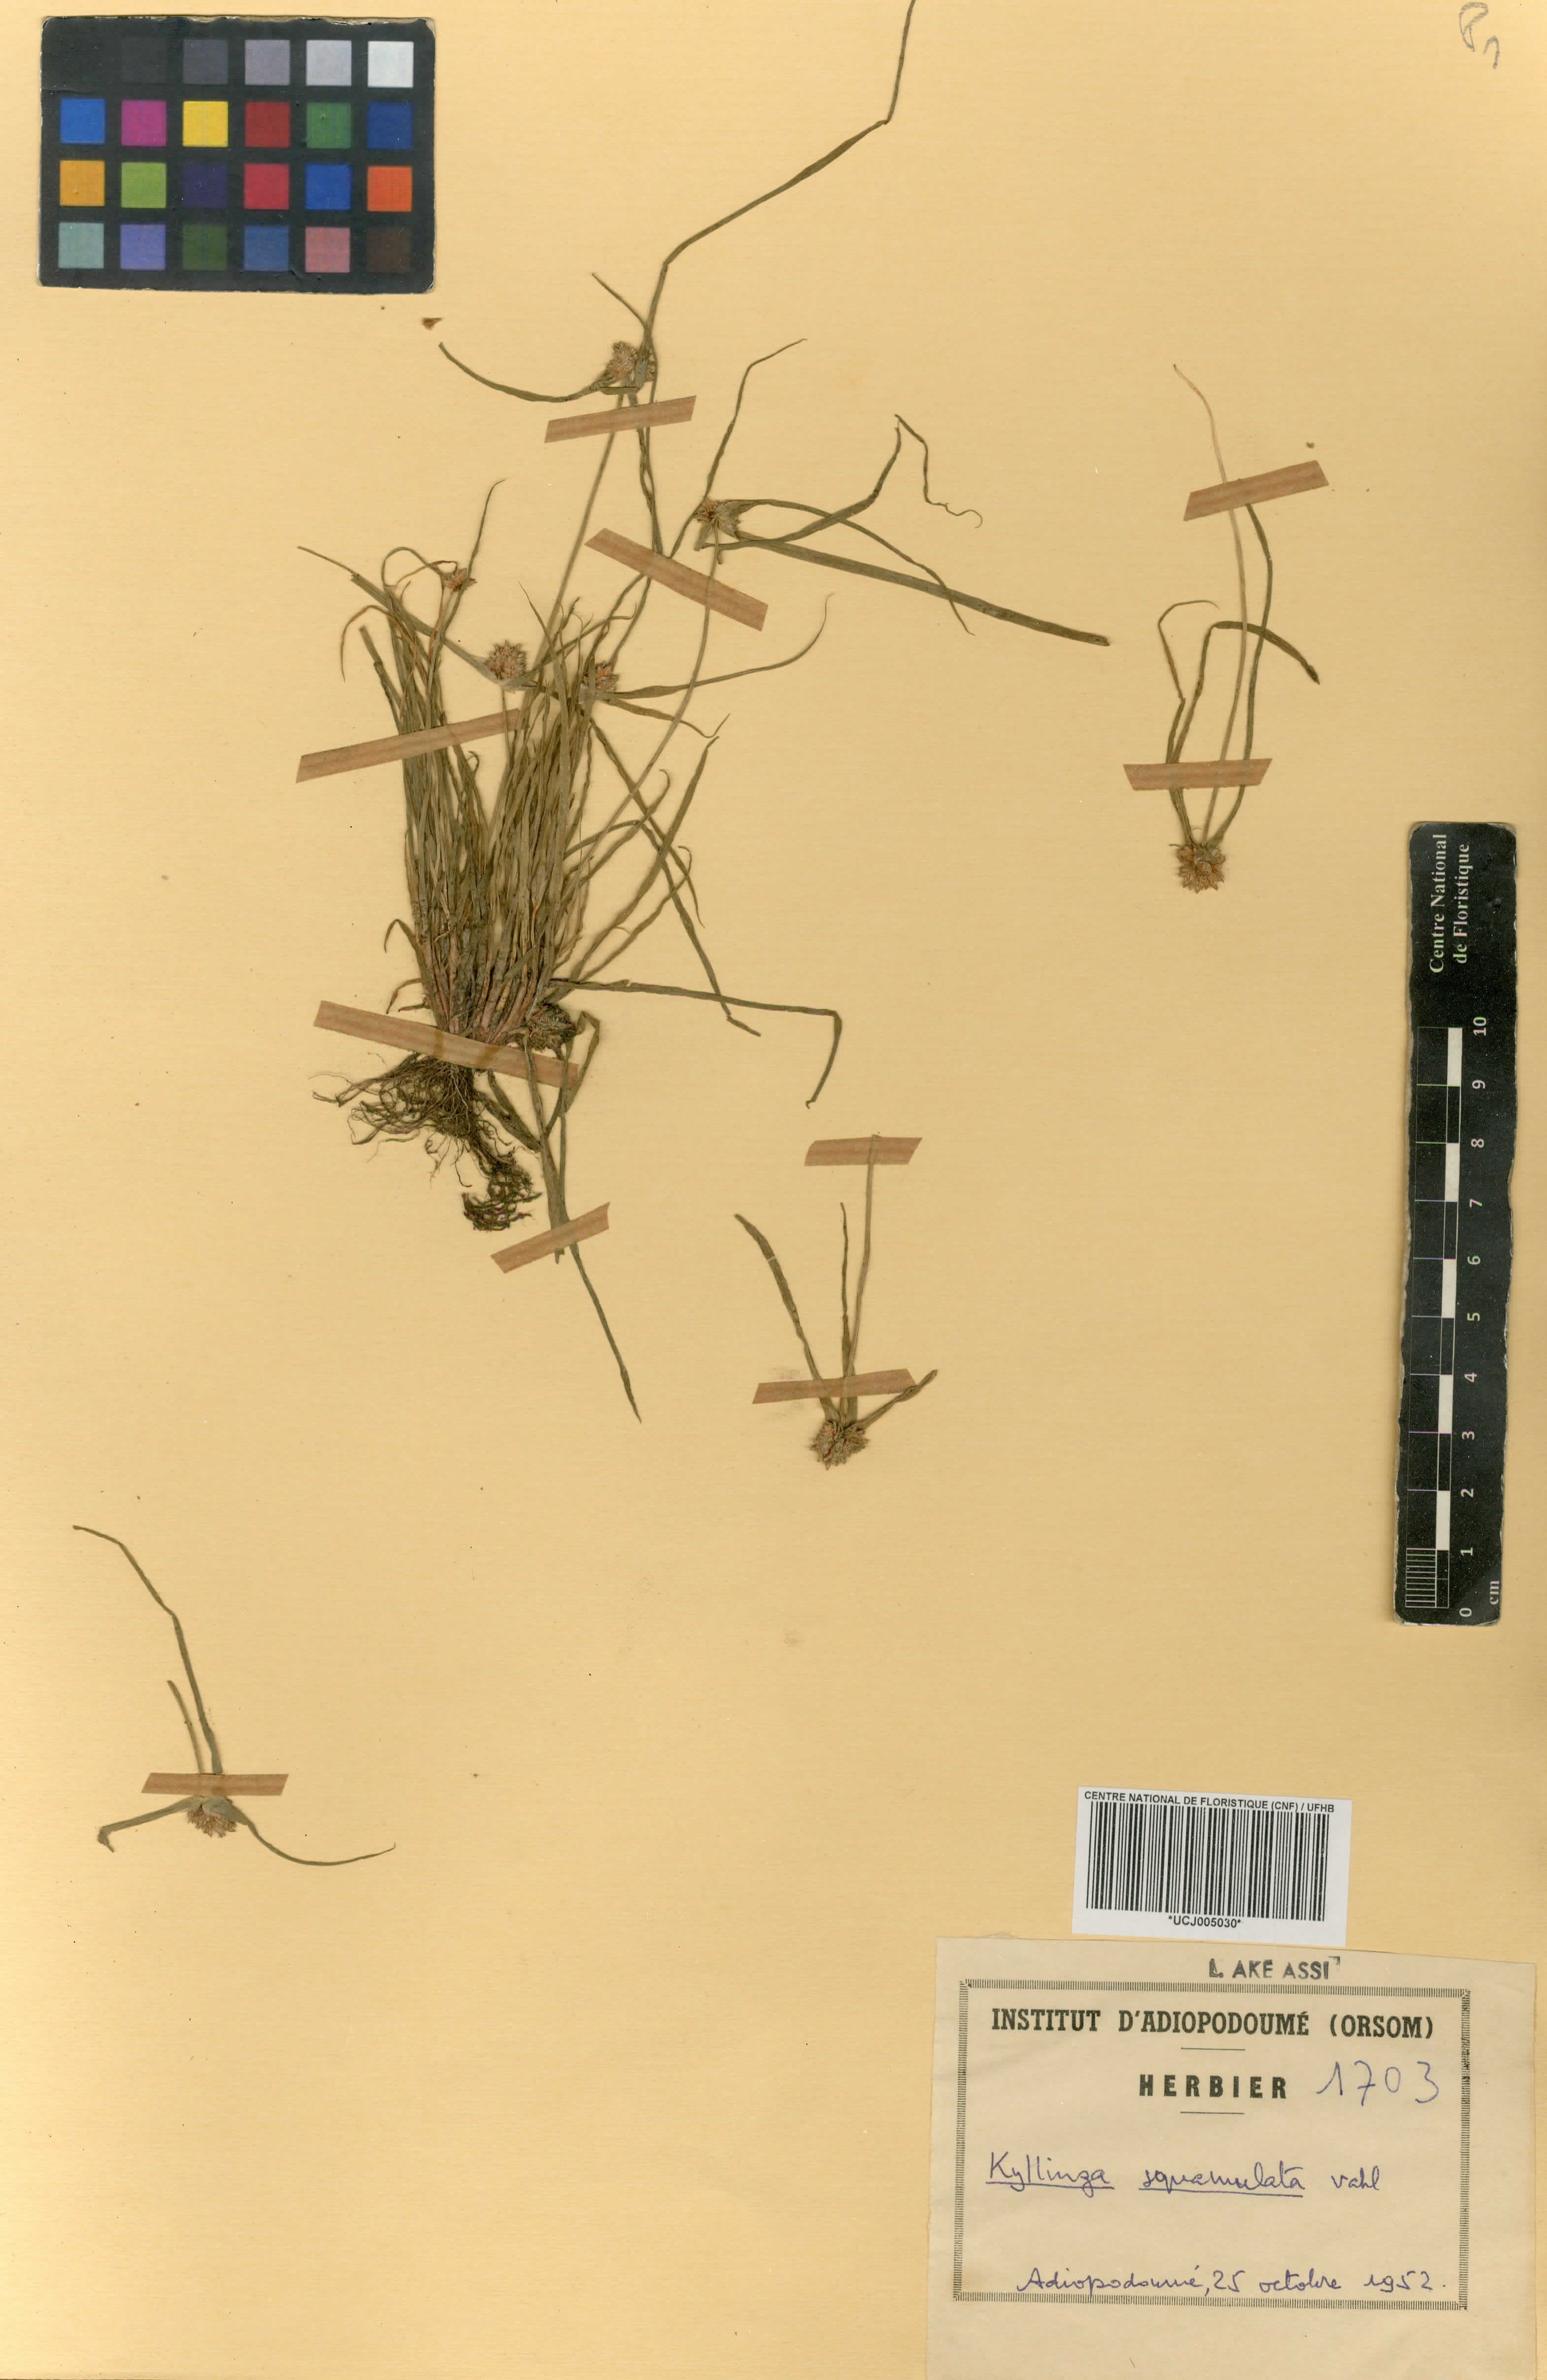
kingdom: Plantae
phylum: Tracheophyta
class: Liliopsida
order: Poales
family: Cyperaceae
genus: Cyperus
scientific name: Cyperus metzii
